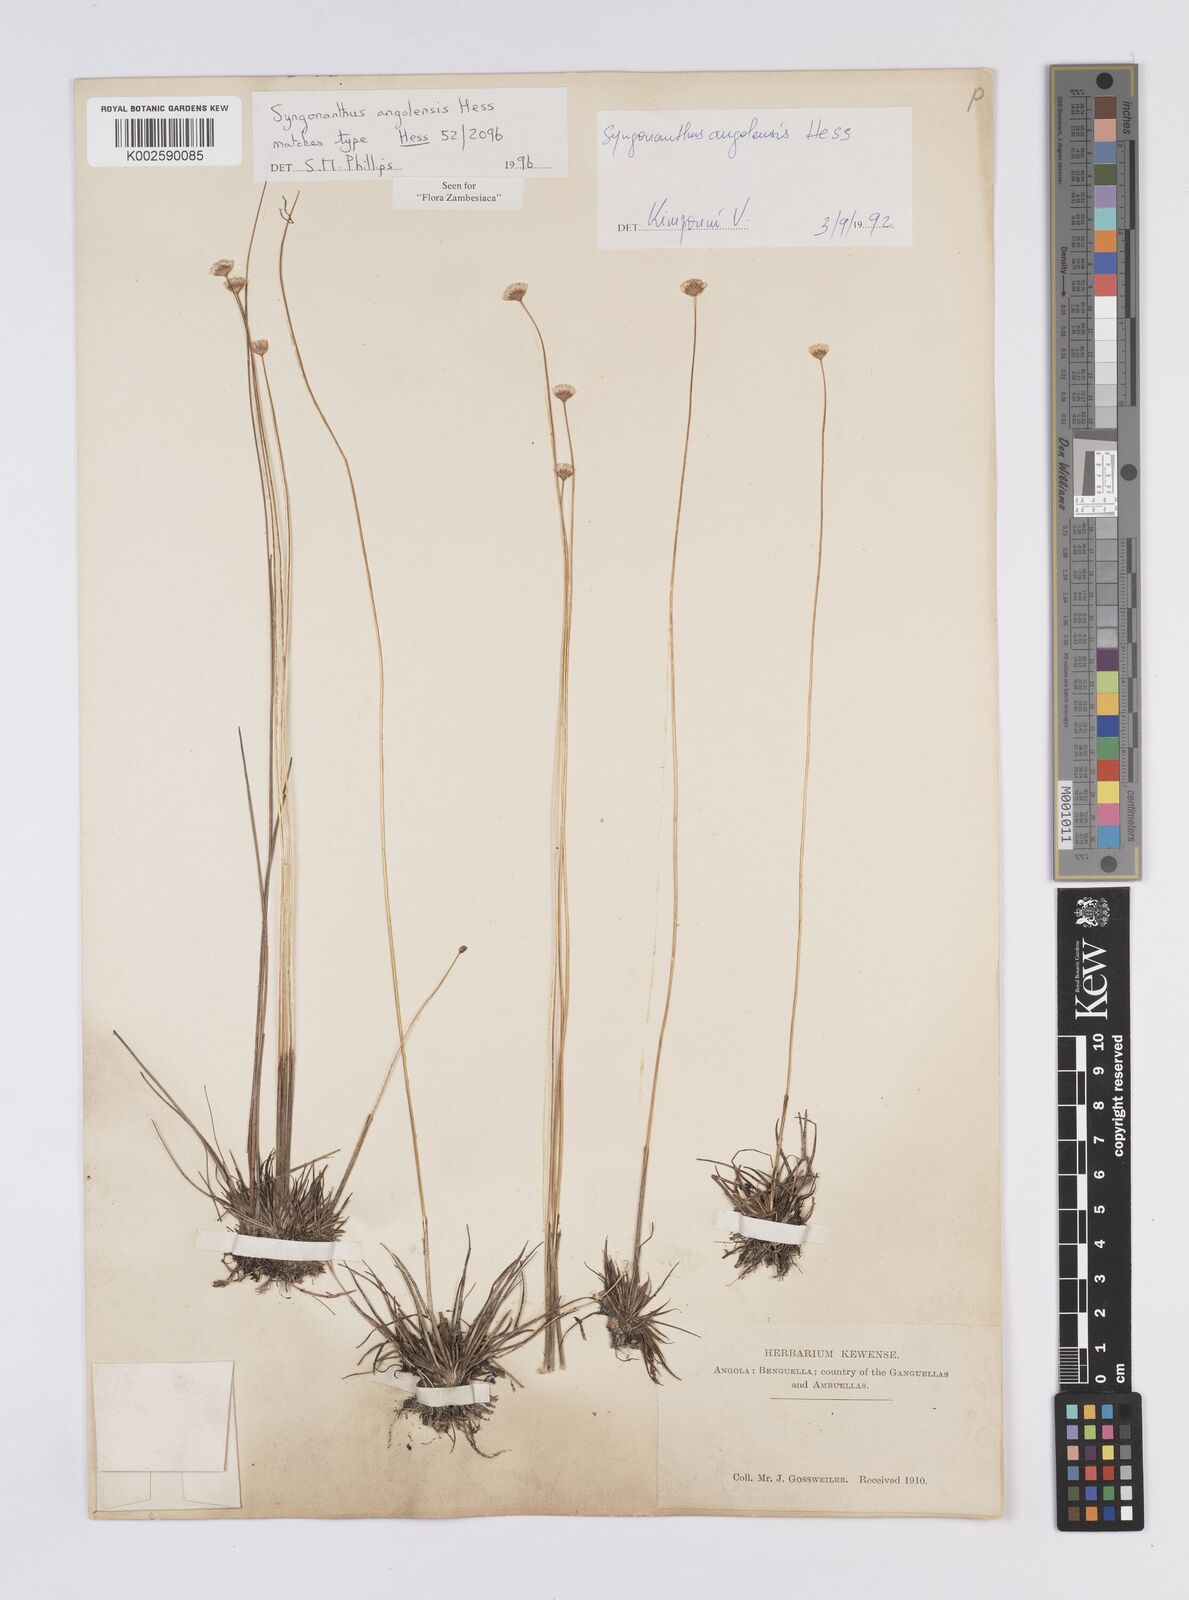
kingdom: Plantae
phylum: Tracheophyta
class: Liliopsida
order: Poales
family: Eriocaulaceae
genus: Syngonanthus
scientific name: Syngonanthus angolensis
